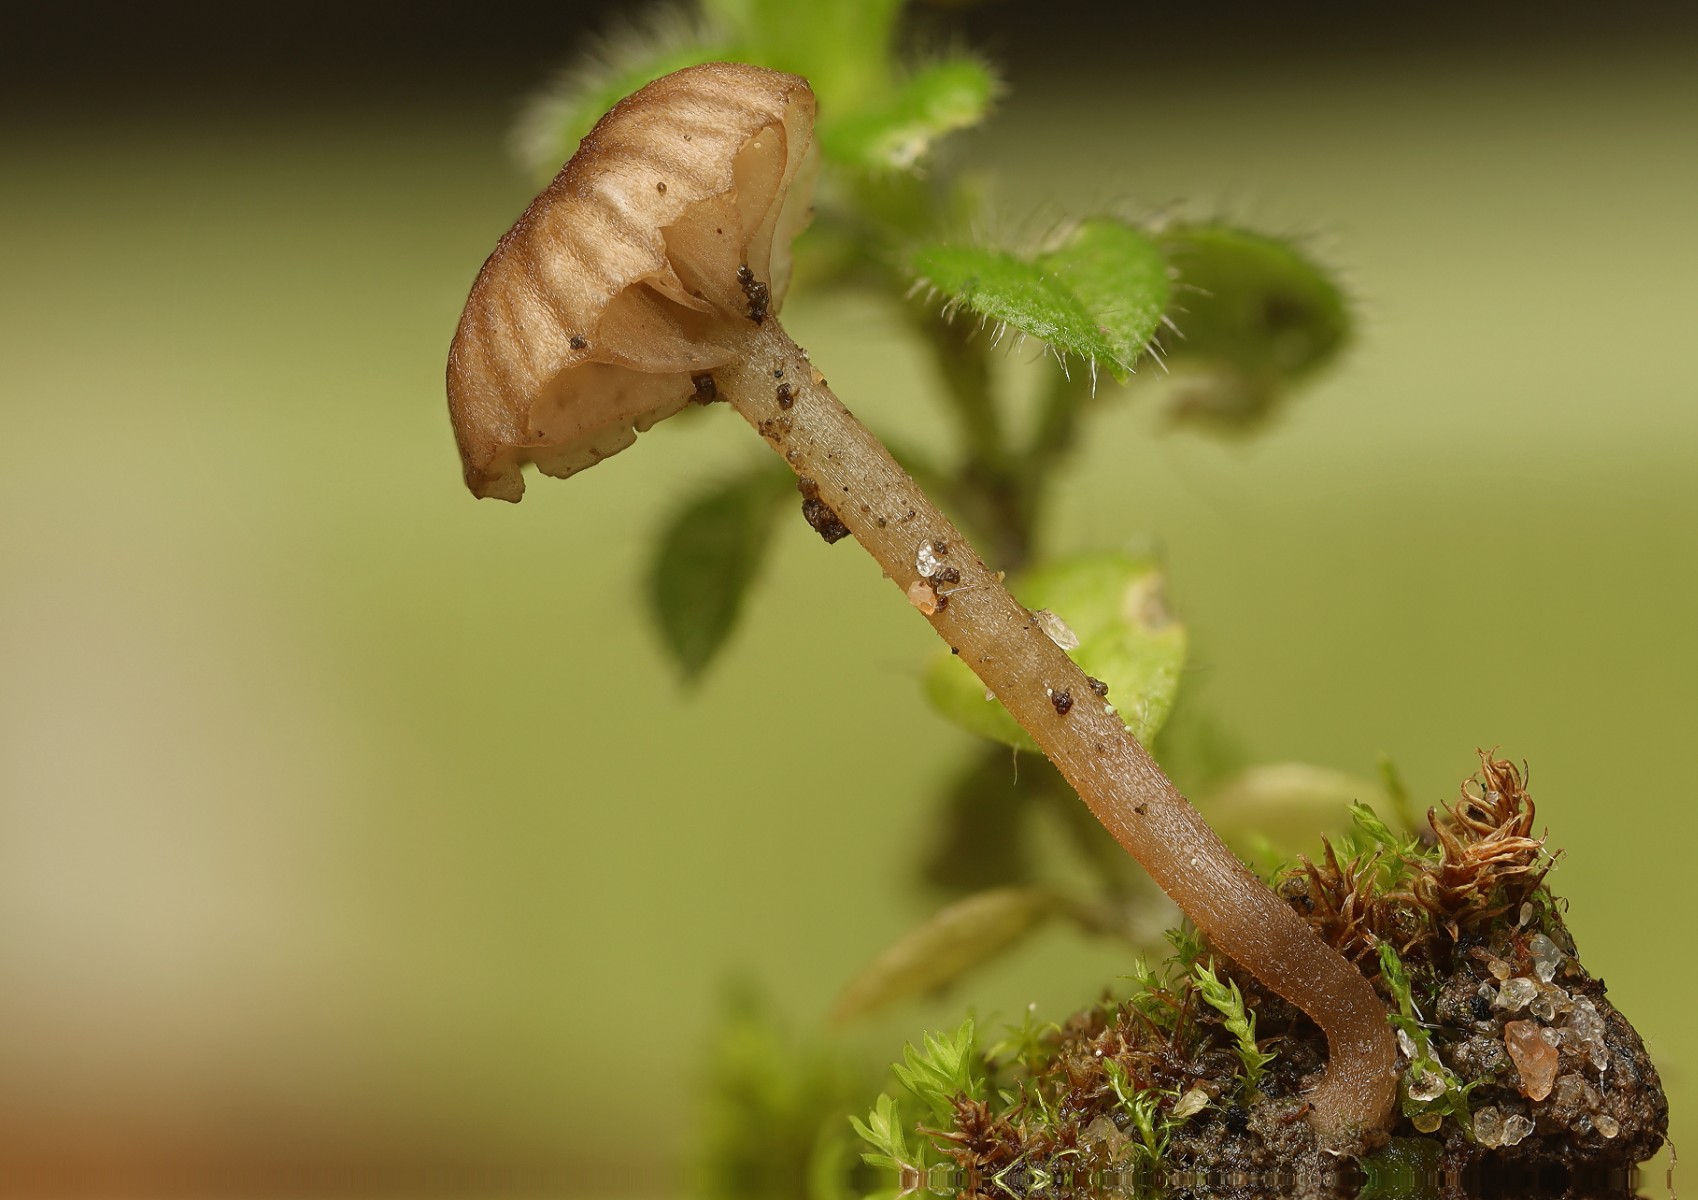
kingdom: Fungi
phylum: Basidiomycota
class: Agaricomycetes
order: Agaricales
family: Hygrophoraceae
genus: Arrhenia
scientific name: Arrhenia rustica
